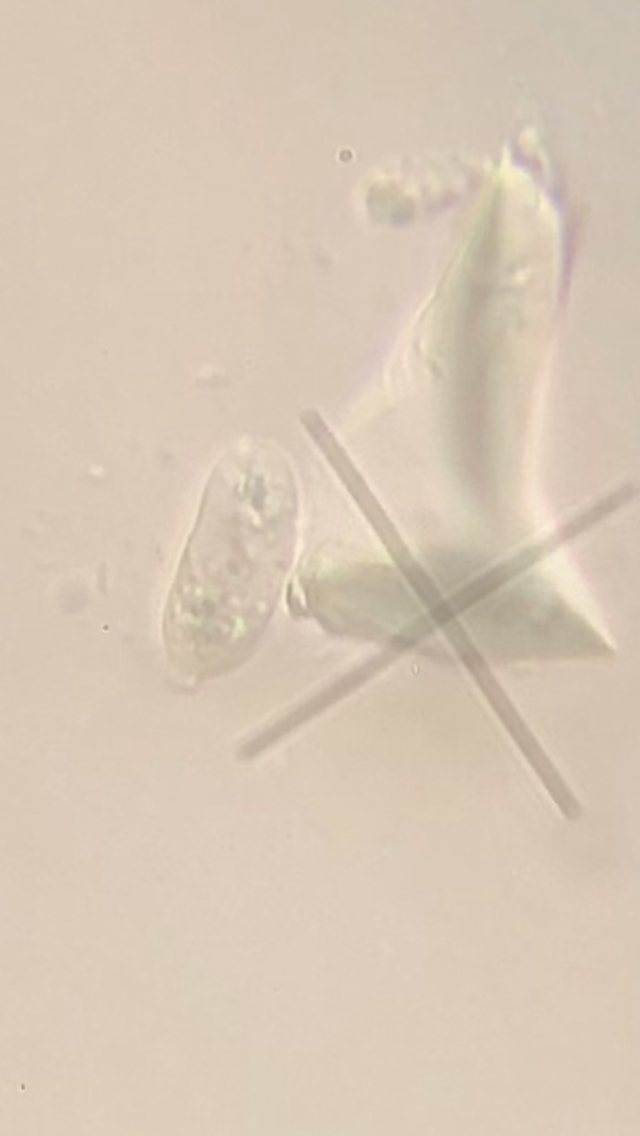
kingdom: Fungi
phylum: Basidiomycota
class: Agaricomycetes
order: Auriculariales
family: Hyaloriaceae
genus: Myxarium
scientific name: Myxarium hyalinum
